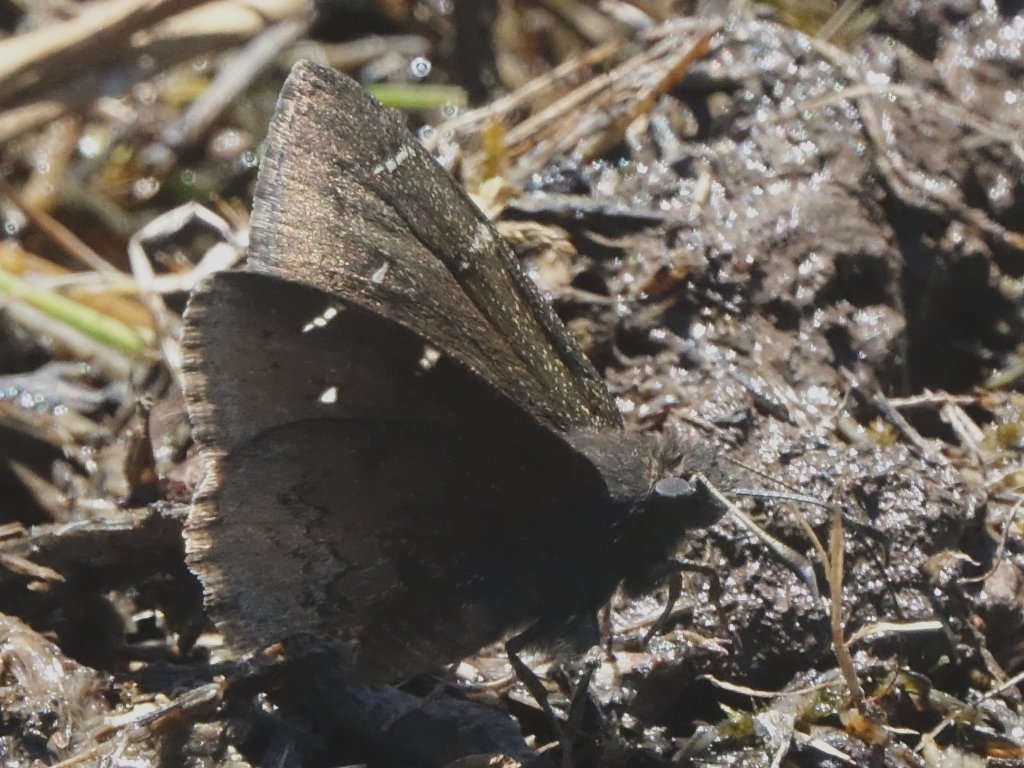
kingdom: Animalia
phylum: Arthropoda
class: Insecta
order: Lepidoptera
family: Hesperiidae
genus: Autochton
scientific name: Autochton
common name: Northern Cloudywing
